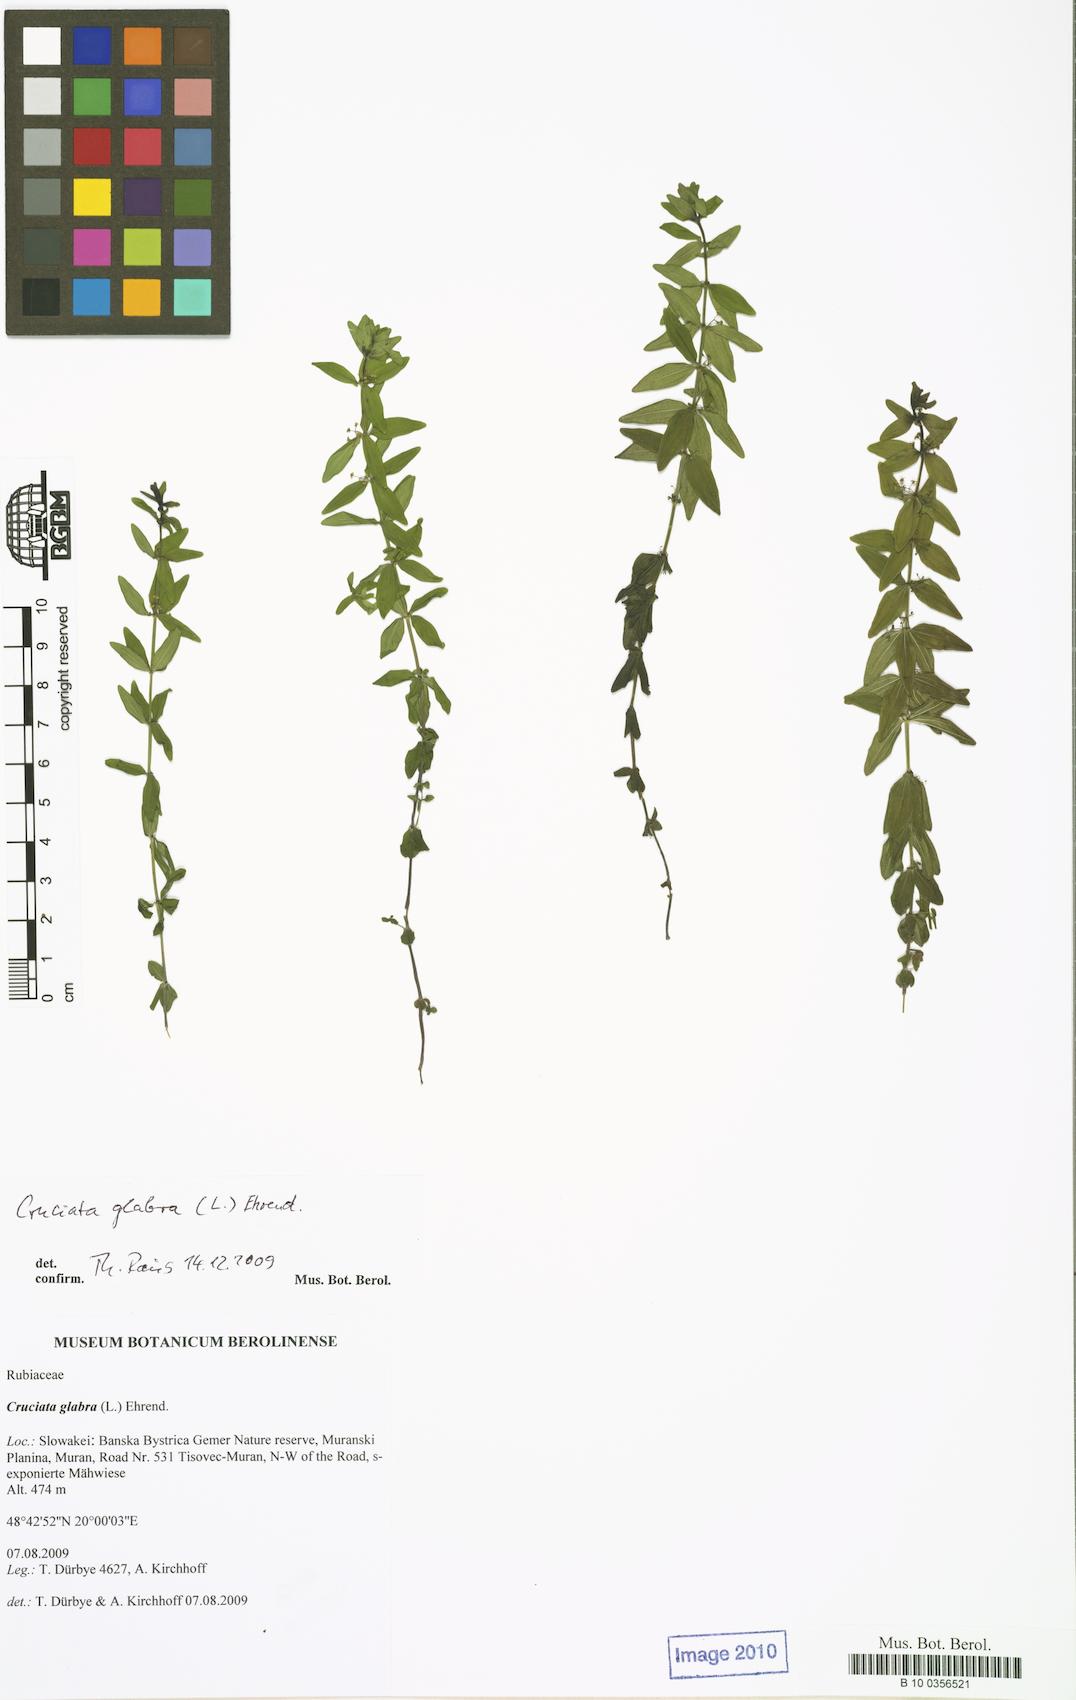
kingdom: Plantae
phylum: Tracheophyta
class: Magnoliopsida
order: Gentianales
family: Rubiaceae
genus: Cruciata
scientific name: Cruciata glabra
